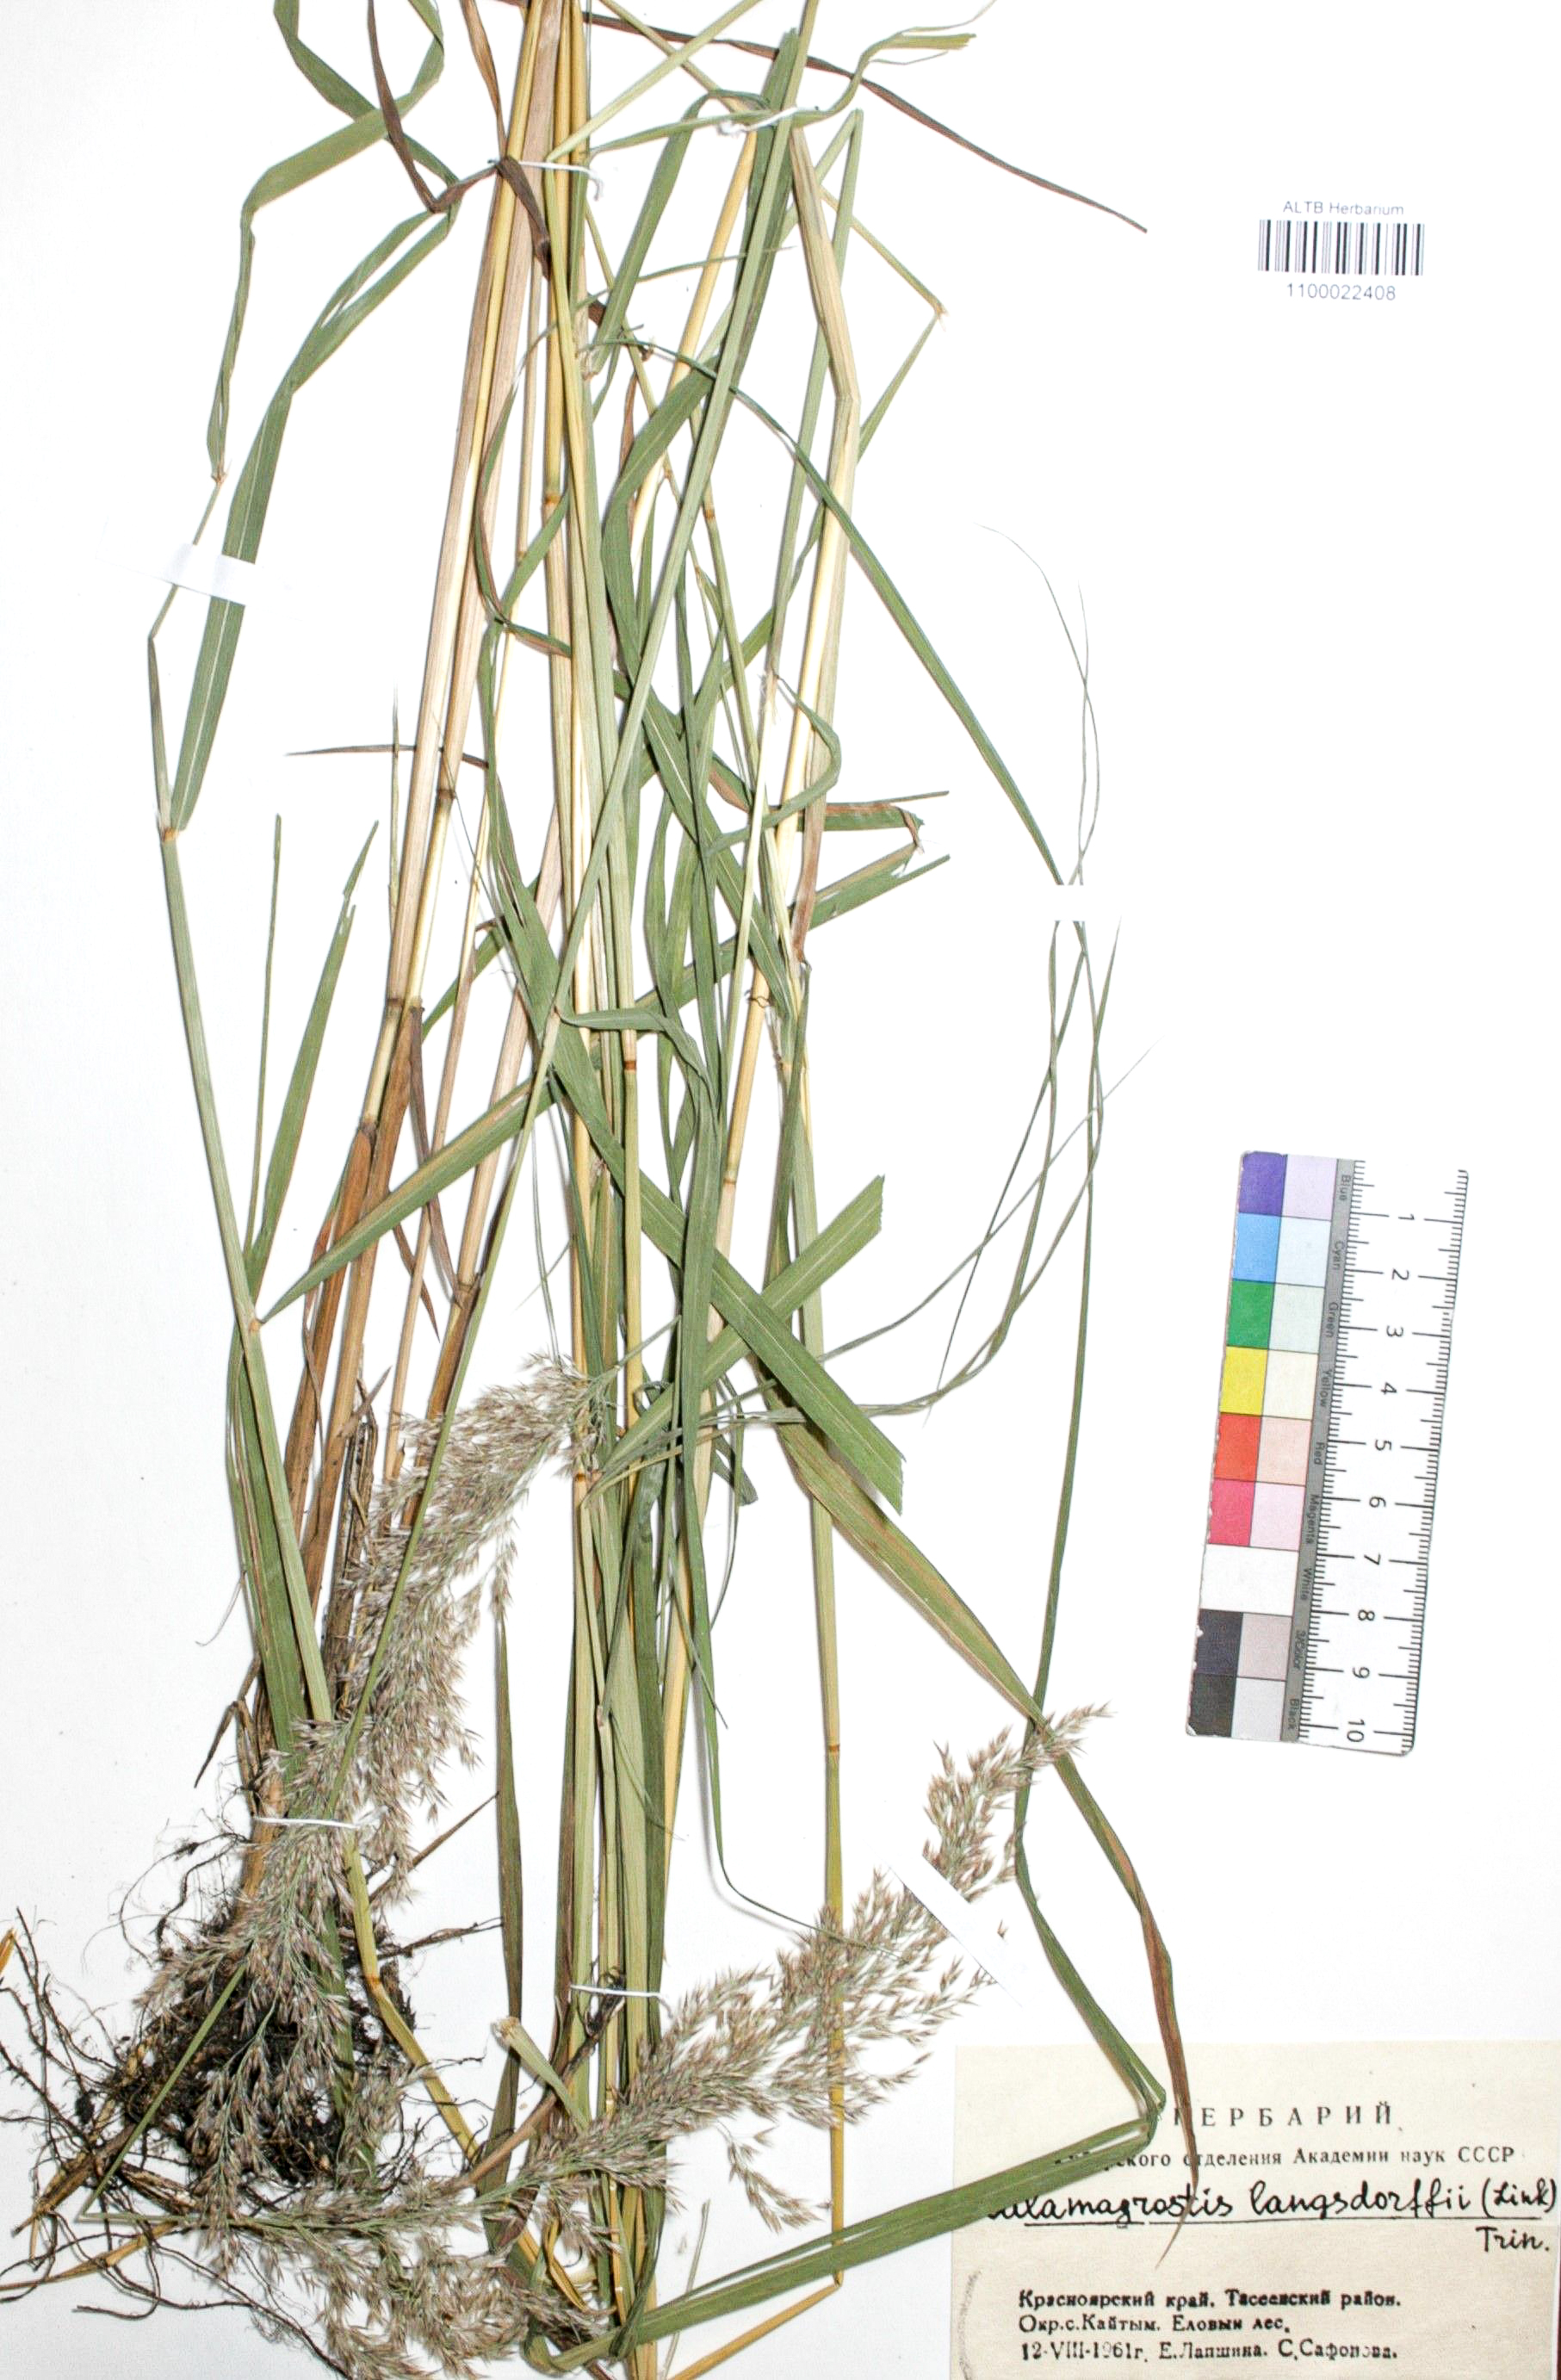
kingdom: Plantae
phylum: Tracheophyta
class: Liliopsida
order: Poales
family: Poaceae
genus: Calamagrostis
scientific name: Calamagrostis purpurea
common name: Scandinavian small-reed
